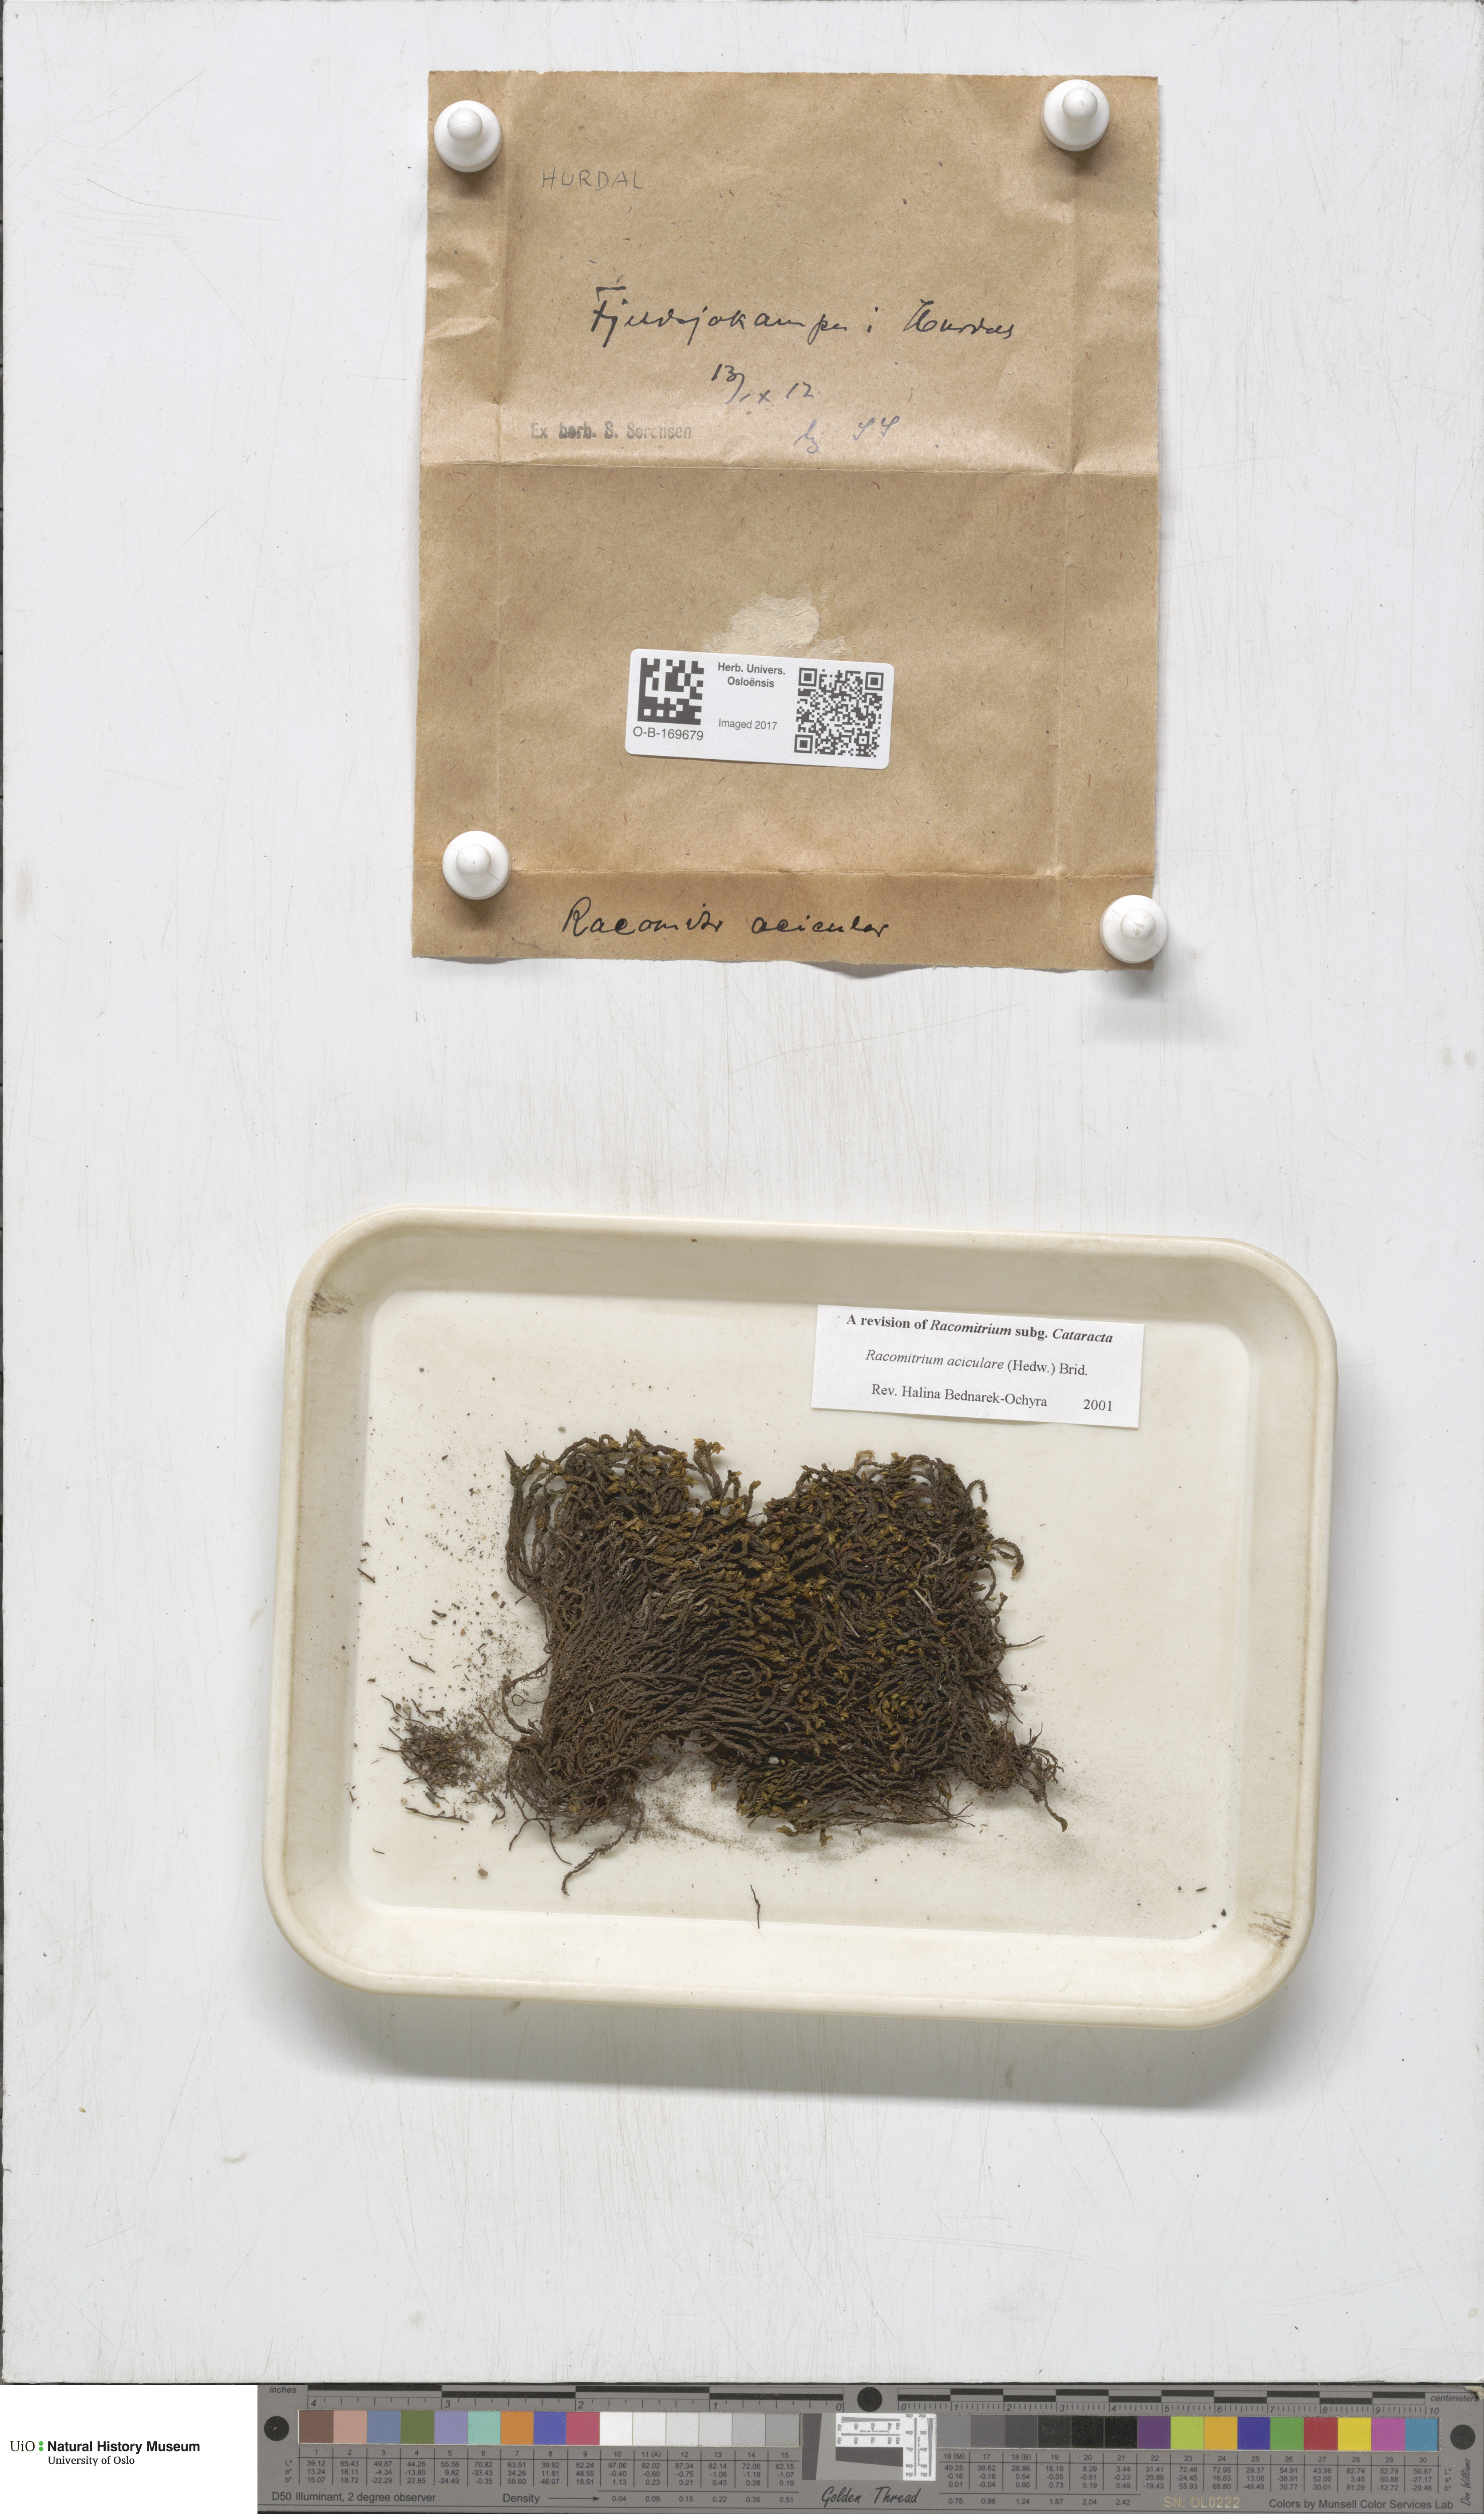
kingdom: Plantae
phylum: Bryophyta
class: Bryopsida
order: Grimmiales
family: Grimmiaceae
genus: Codriophorus
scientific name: Codriophorus acicularis
